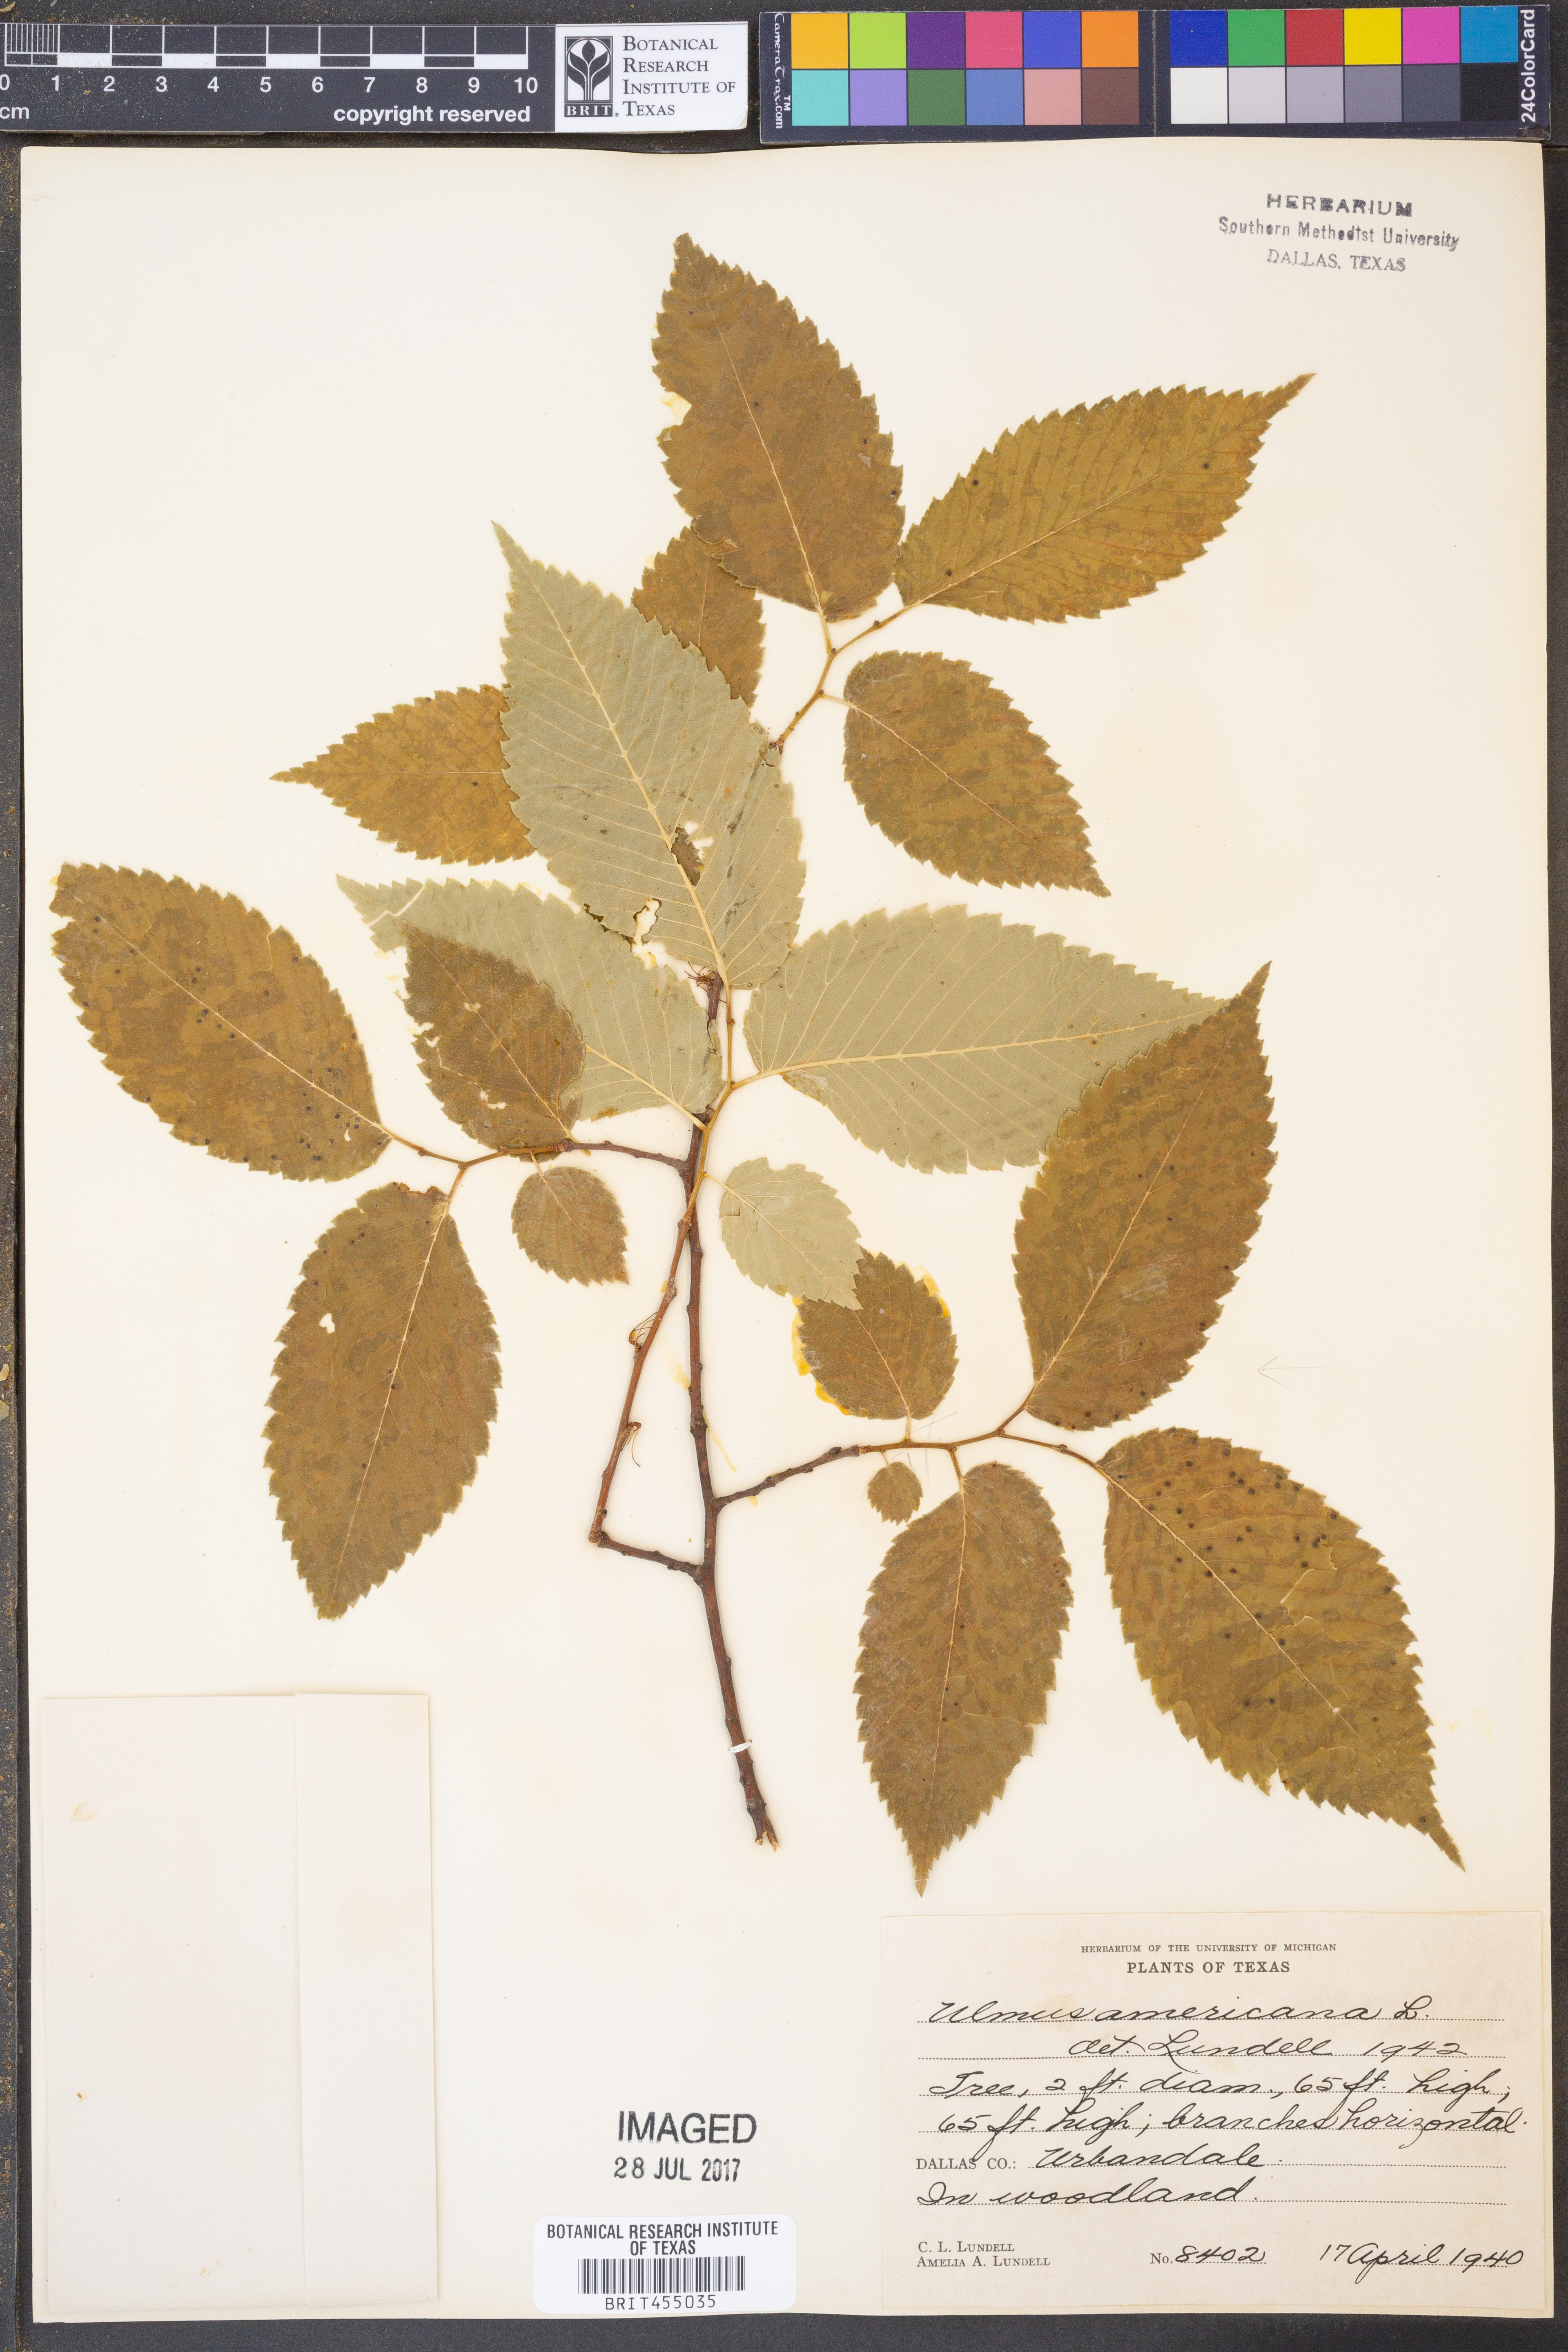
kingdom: Plantae
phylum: Tracheophyta
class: Magnoliopsida
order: Rosales
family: Ulmaceae
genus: Ulmus
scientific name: Ulmus americana
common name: American elm
